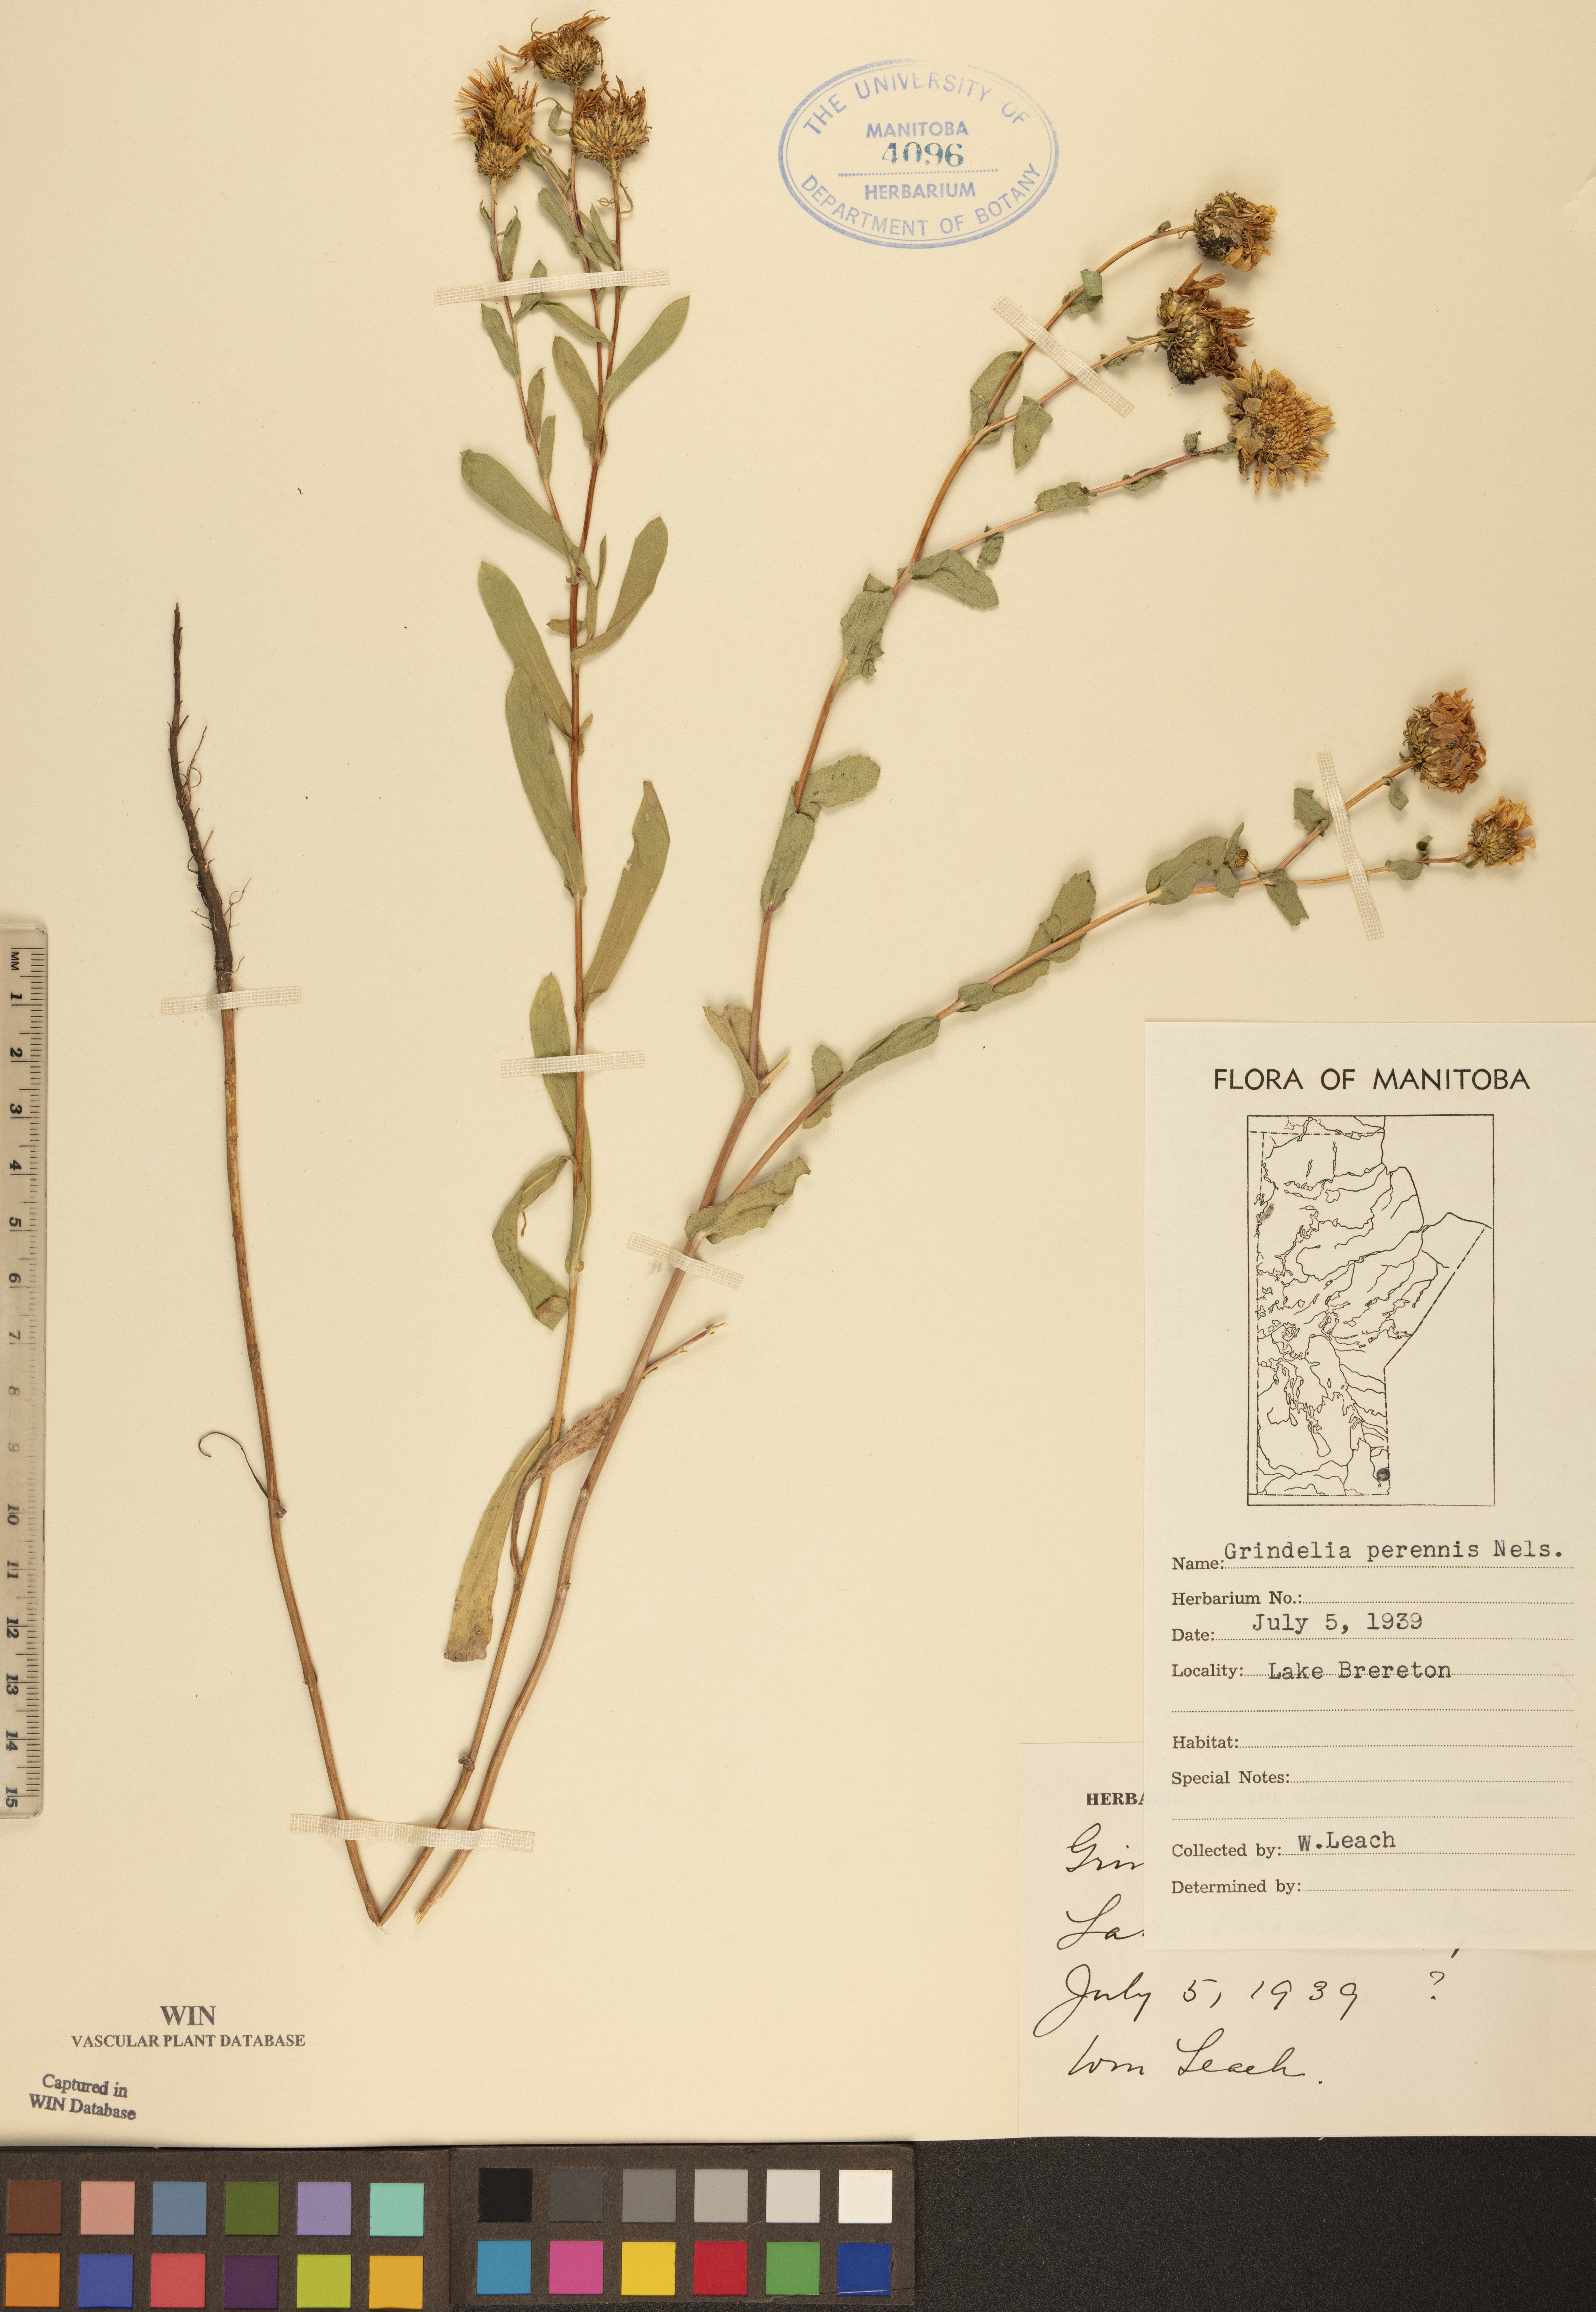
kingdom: Plantae
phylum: Tracheophyta
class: Magnoliopsida
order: Asterales
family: Asteraceae
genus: Grindelia
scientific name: Grindelia hirsutula
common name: Hairy gumweed
